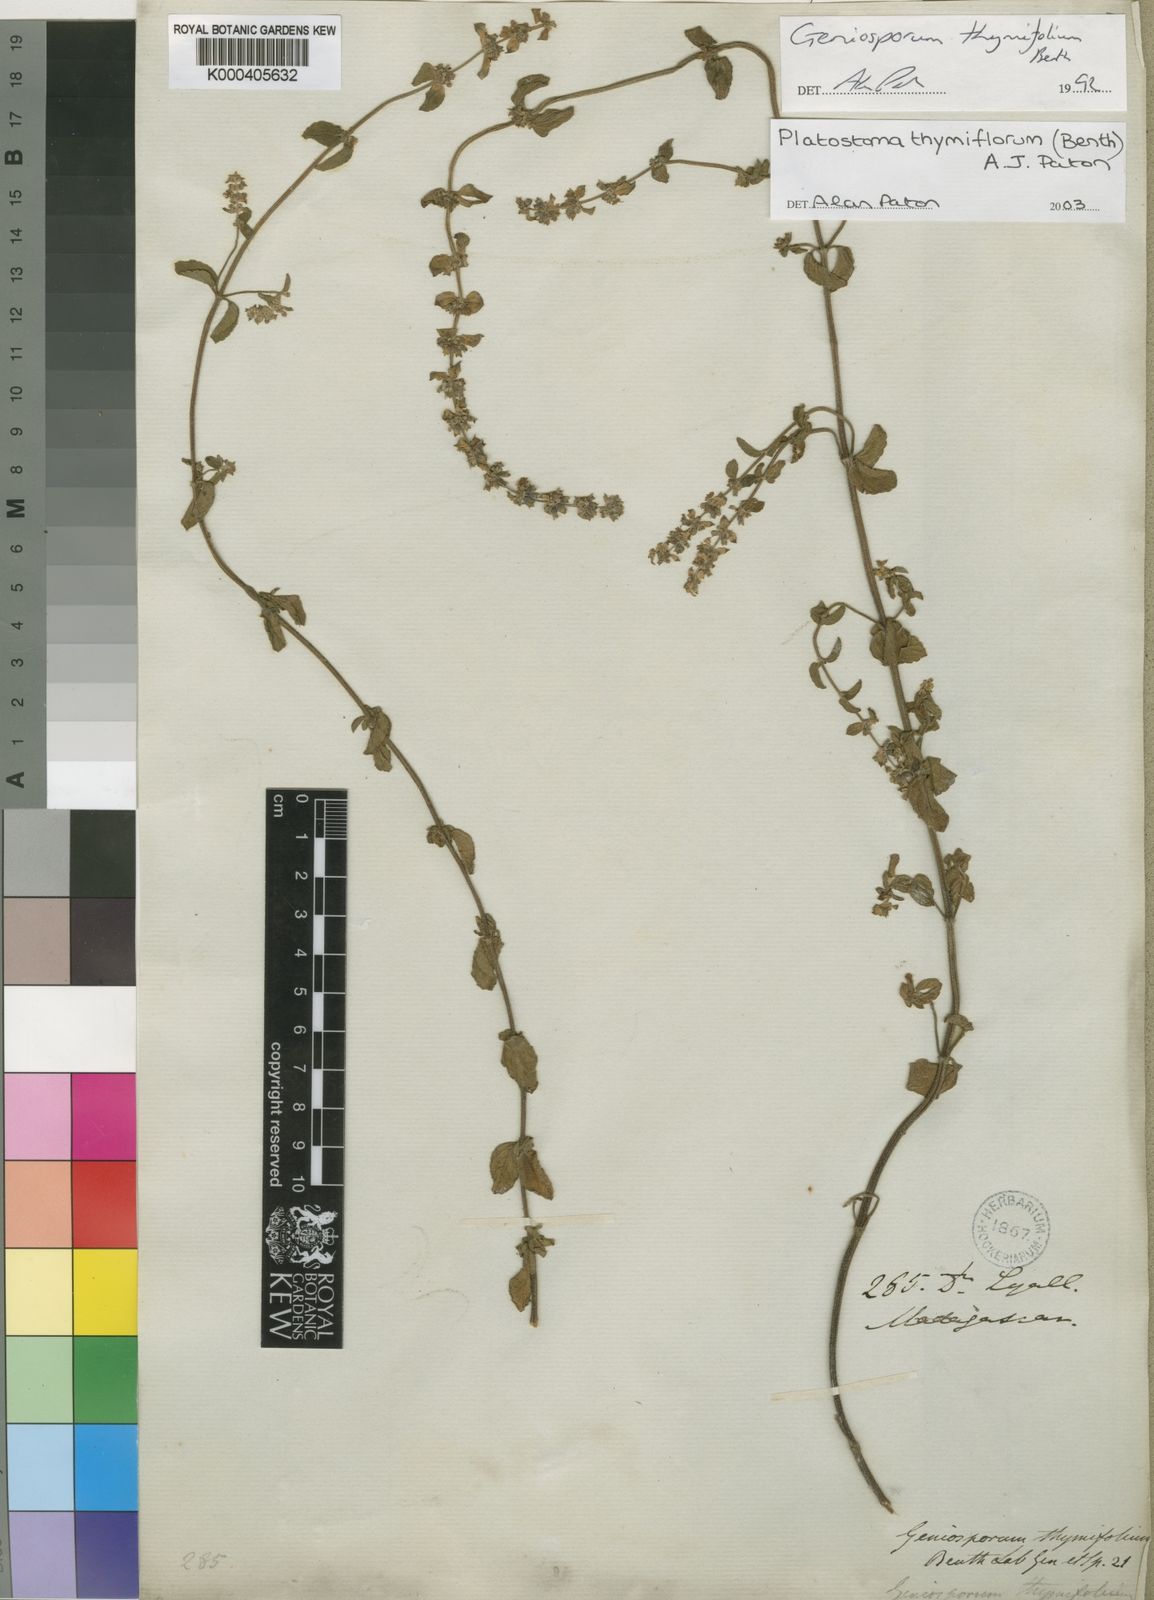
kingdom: Plantae
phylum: Tracheophyta
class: Magnoliopsida
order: Lamiales
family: Lamiaceae
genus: Platostoma
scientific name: Platostoma thymifolium
